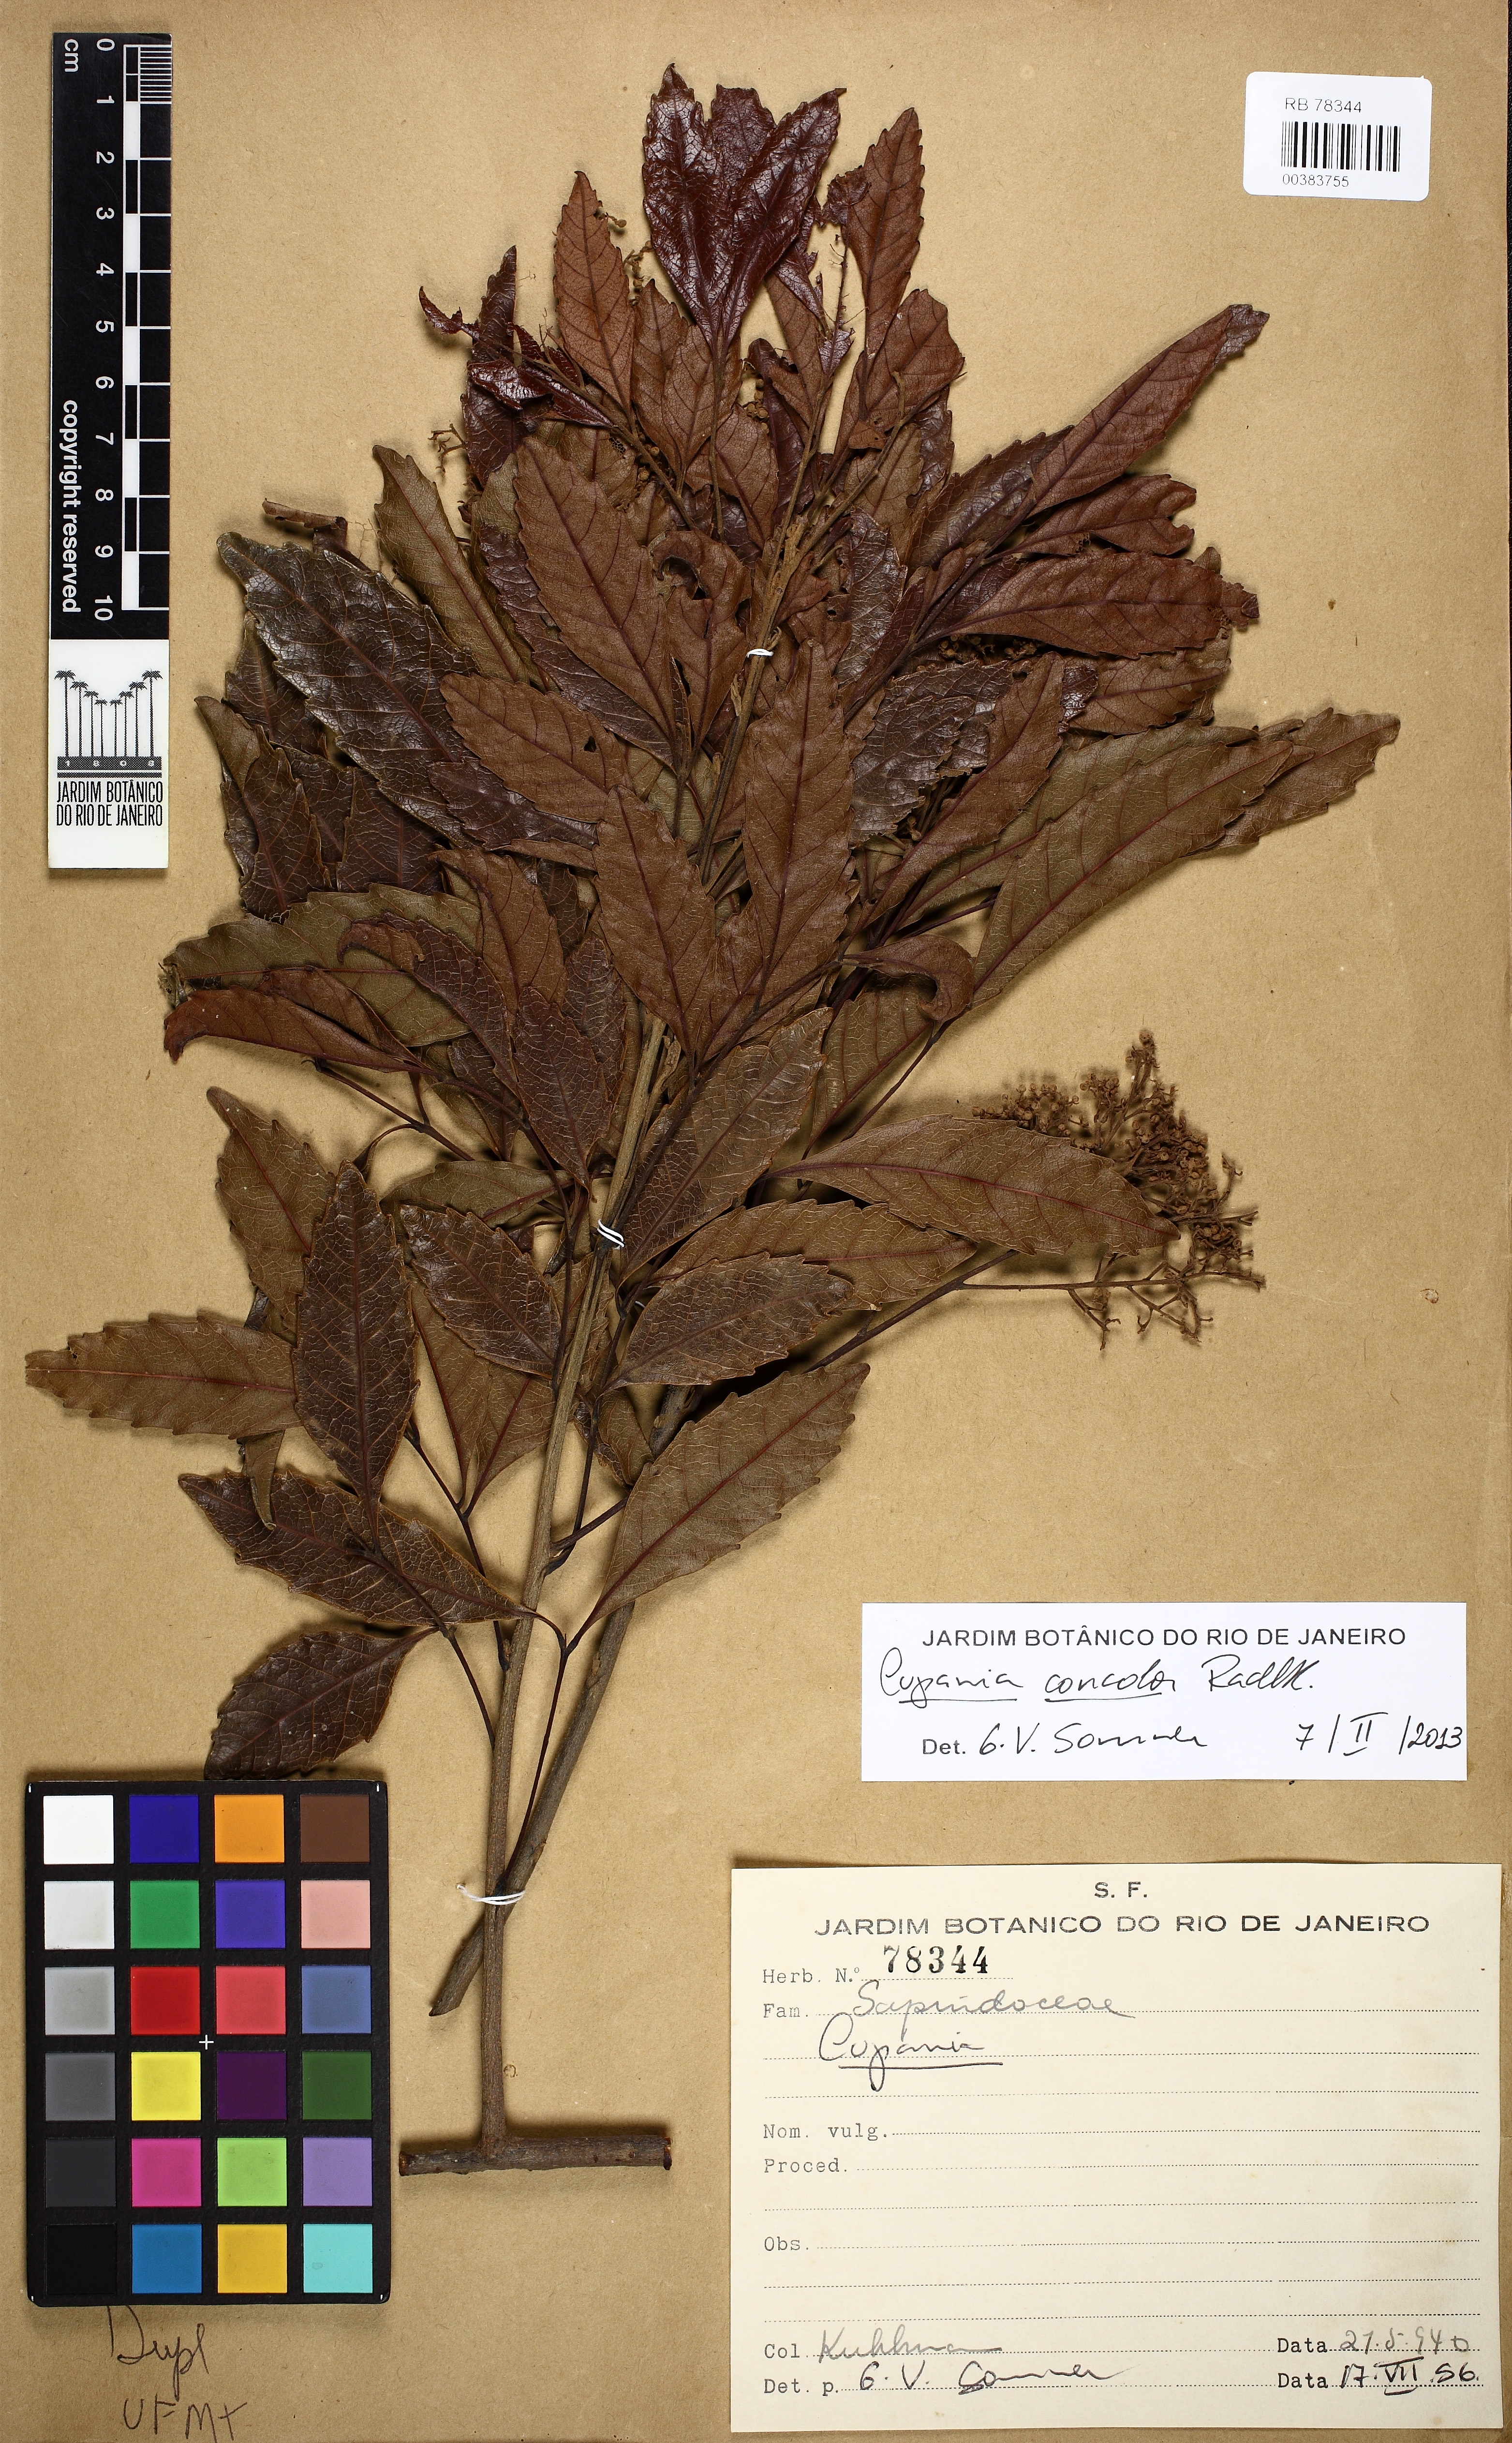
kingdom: Plantae
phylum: Tracheophyta
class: Magnoliopsida
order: Sapindales
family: Sapindaceae
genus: Cupania
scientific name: Cupania concolor
